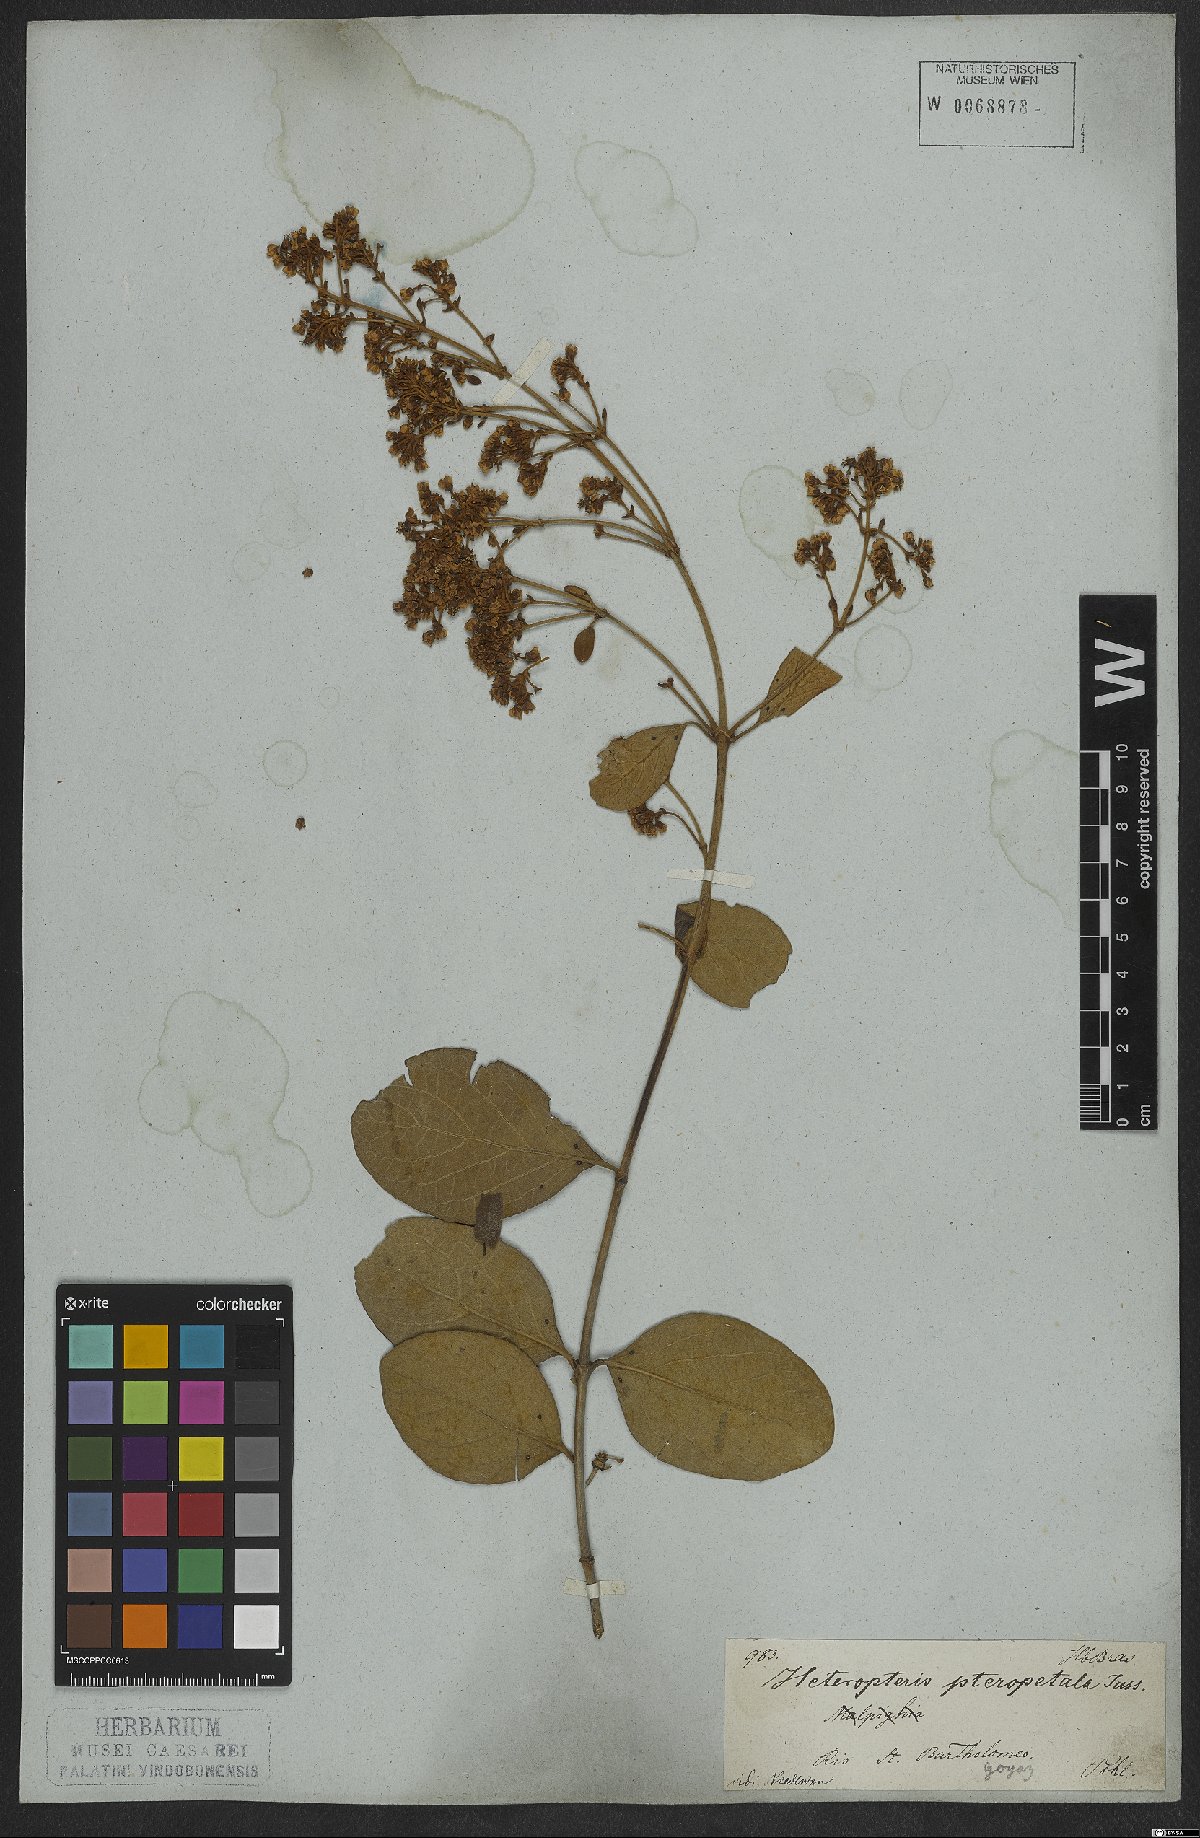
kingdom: Plantae
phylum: Tracheophyta
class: Magnoliopsida
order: Malpighiales
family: Malpighiaceae
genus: Heteropterys
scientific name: Heteropterys pteropetala
